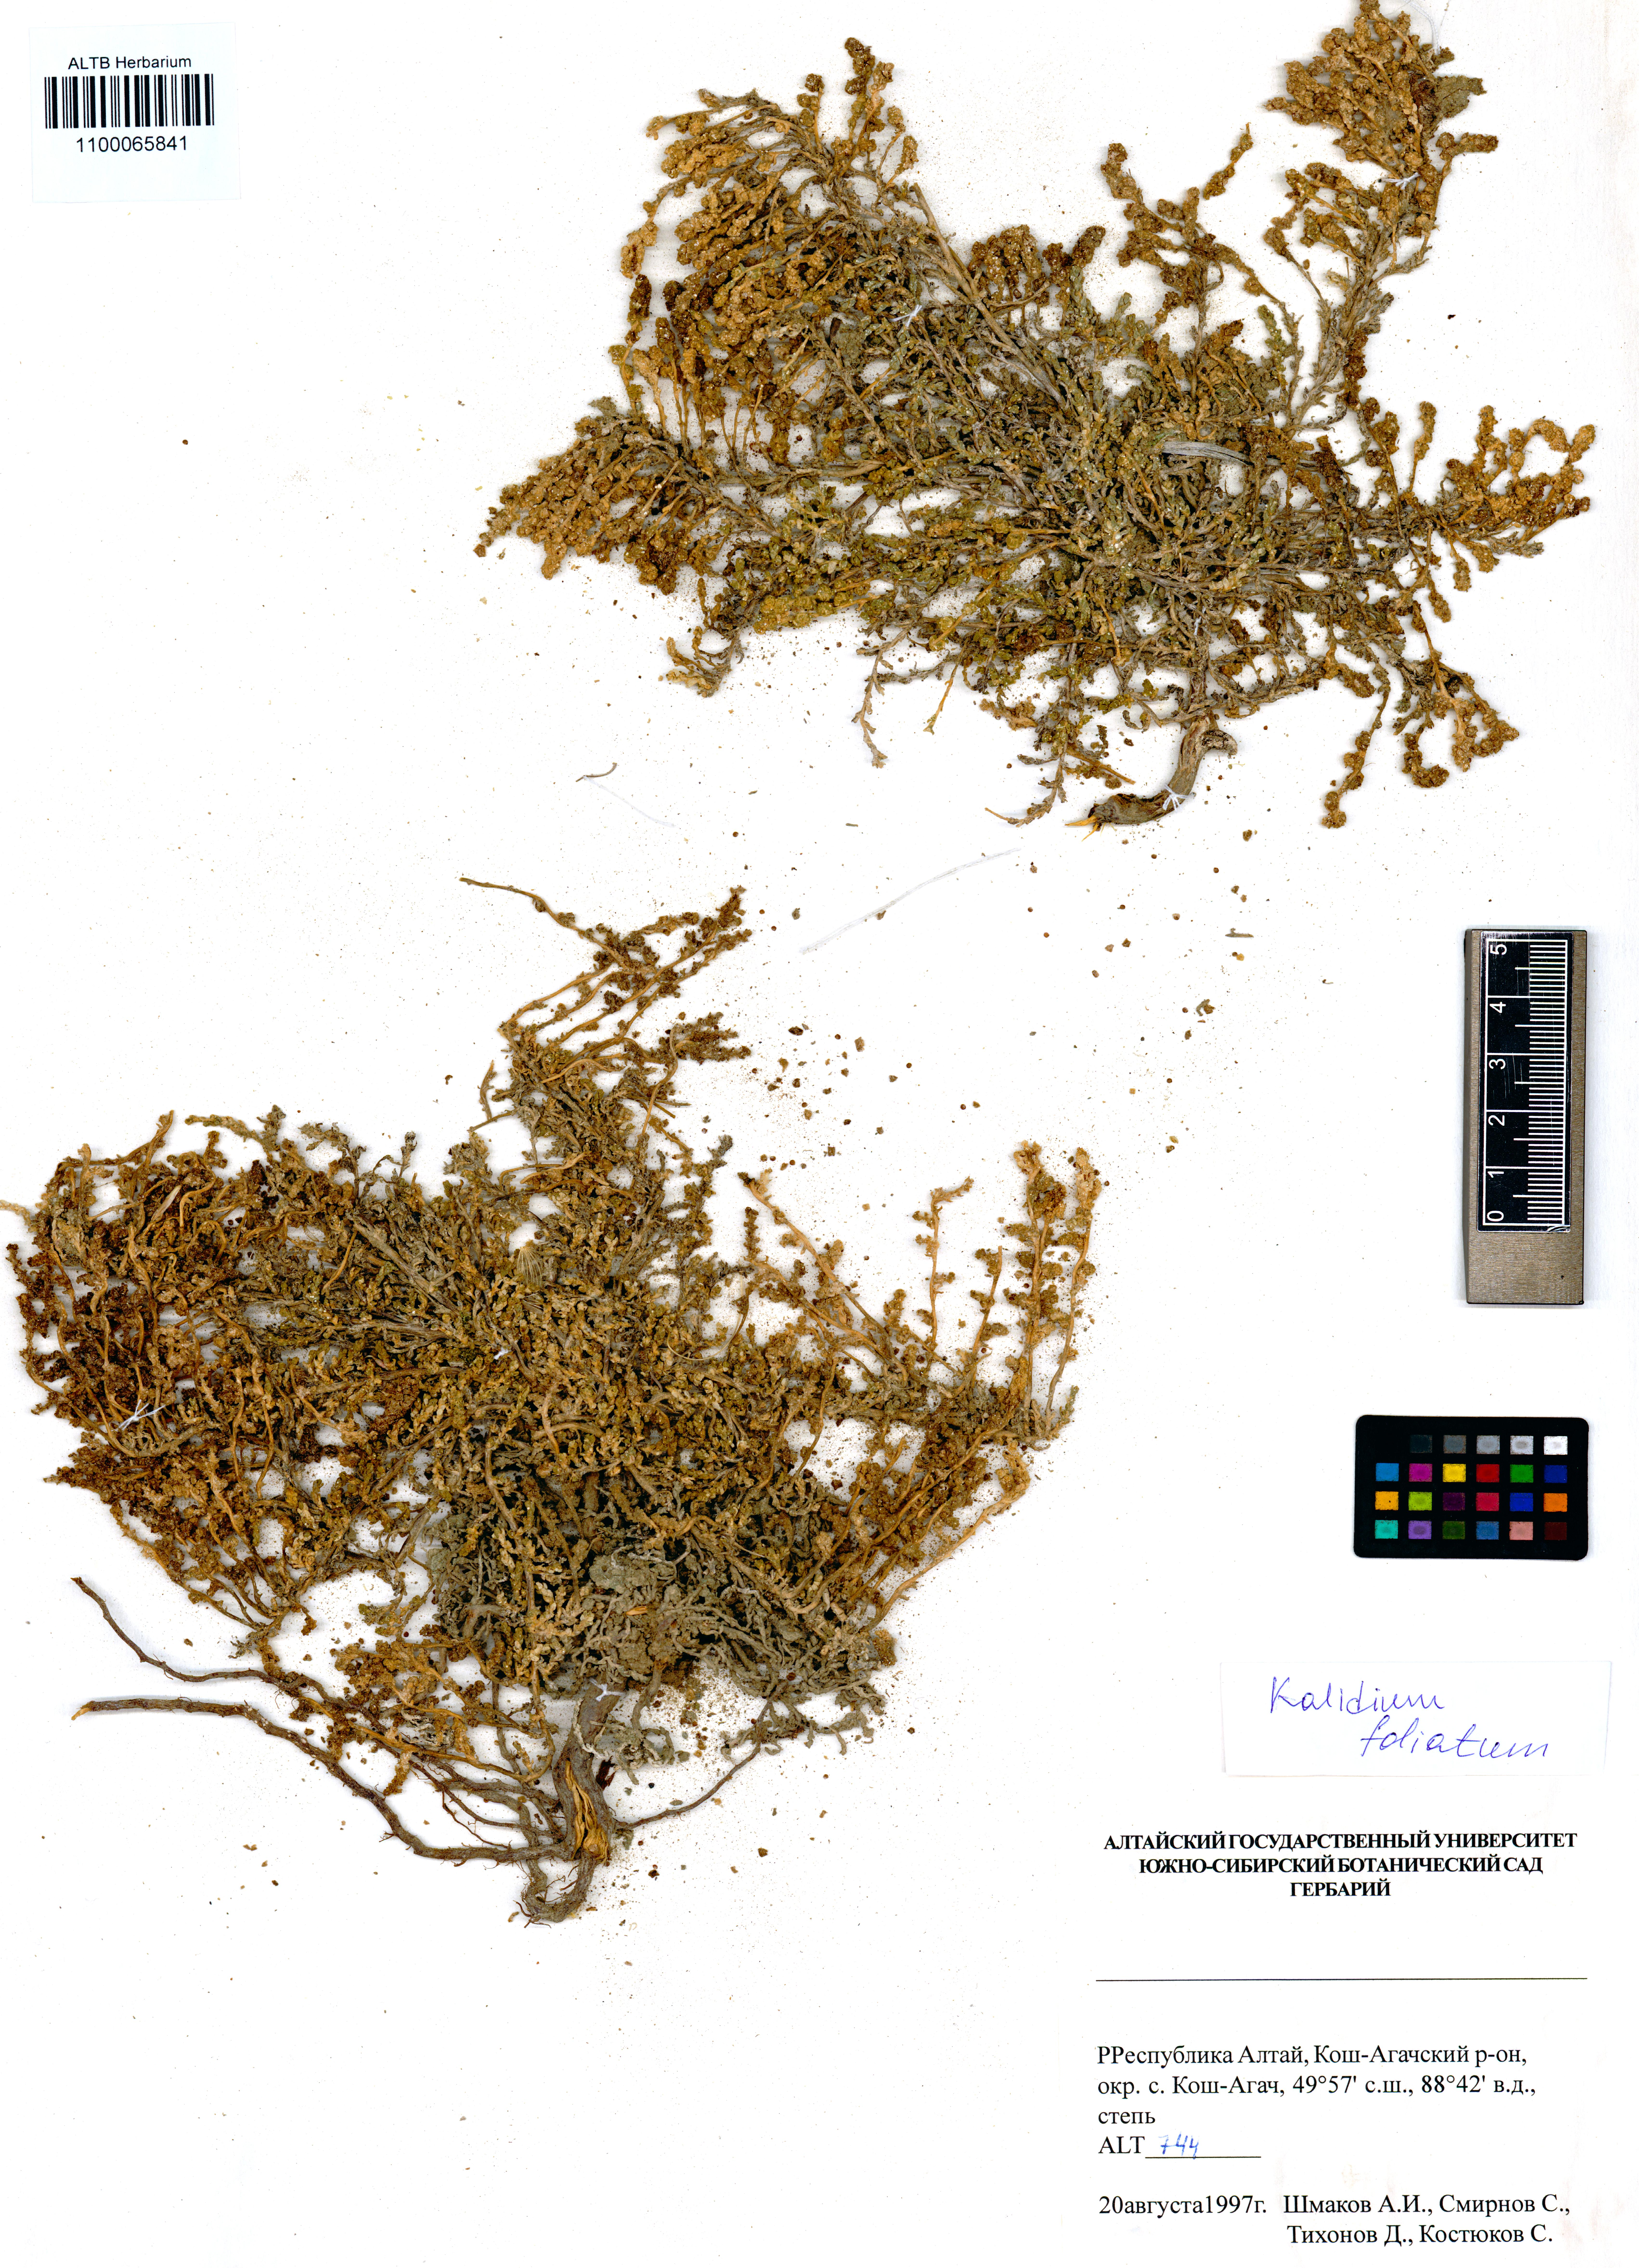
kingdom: Plantae
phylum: Tracheophyta
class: Magnoliopsida
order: Caryophyllales
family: Amaranthaceae
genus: Kalidium
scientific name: Kalidium foliatum
